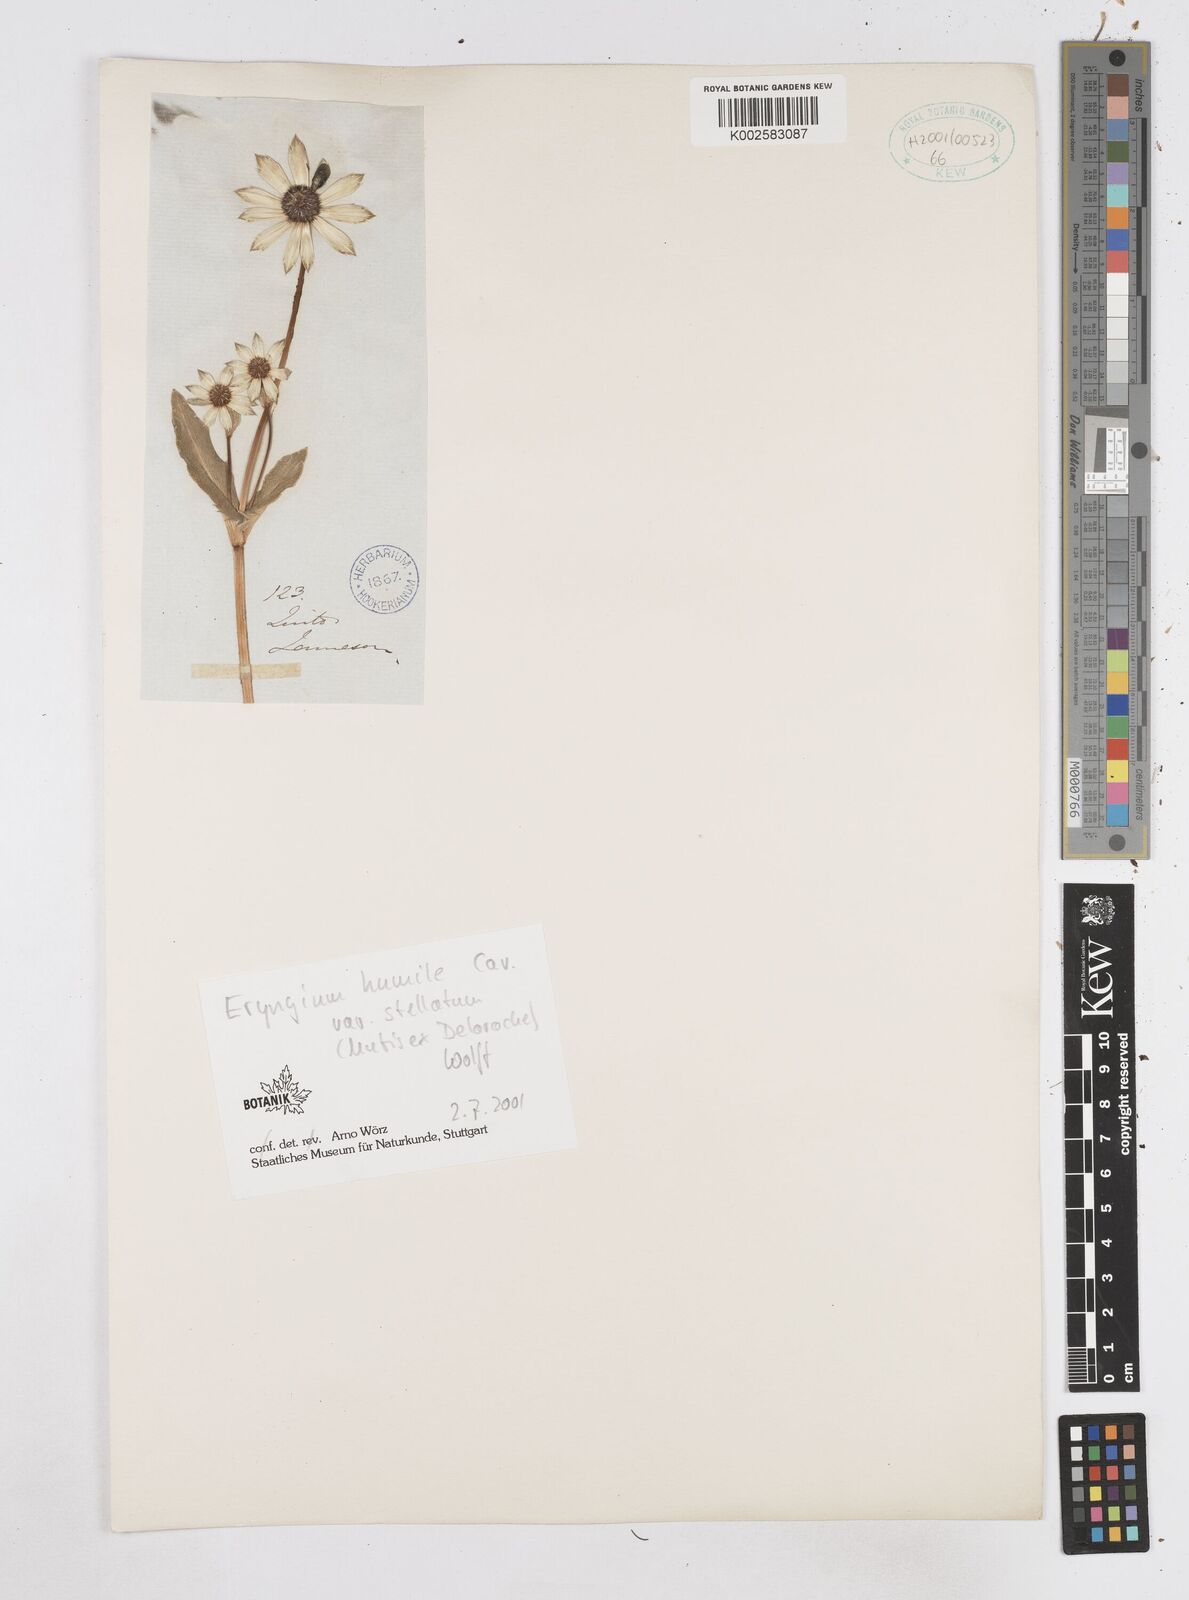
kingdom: Plantae
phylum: Tracheophyta
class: Magnoliopsida
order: Apiales
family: Apiaceae
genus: Eryngium
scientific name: Eryngium humile
